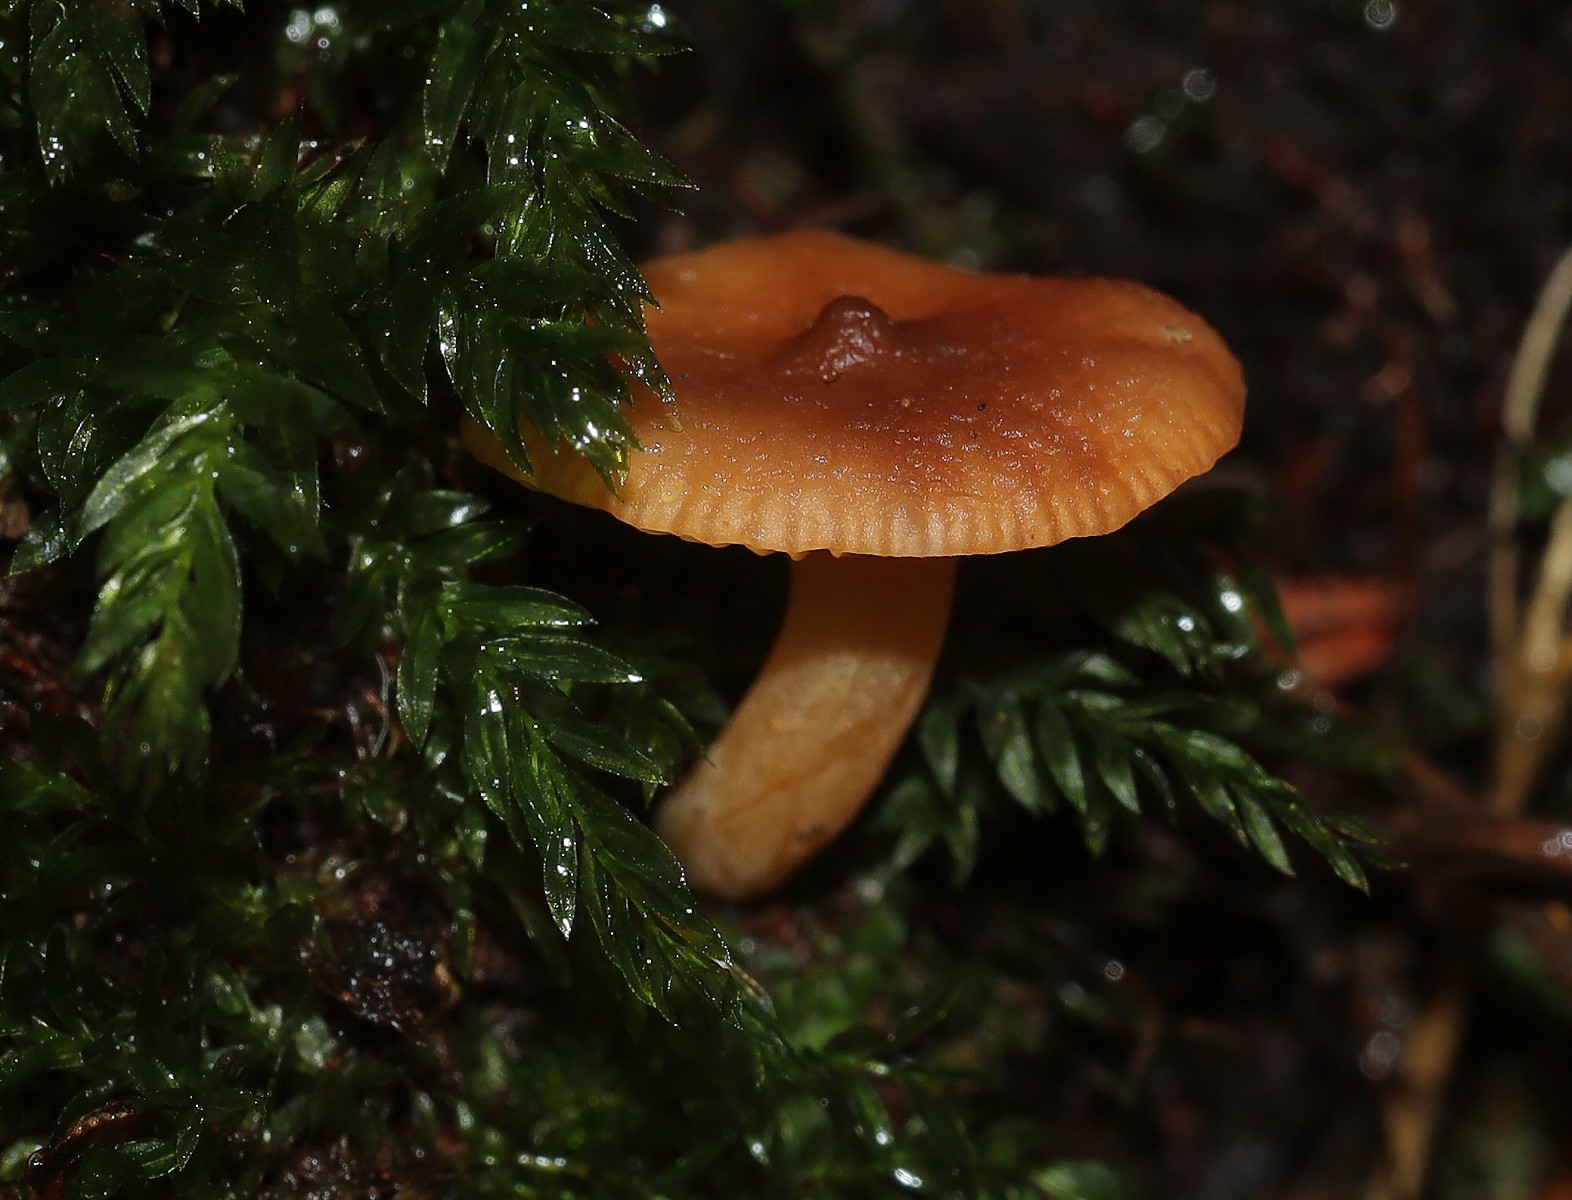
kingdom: Fungi
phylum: Basidiomycota
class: Agaricomycetes
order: Russulales
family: Russulaceae
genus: Lactarius
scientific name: Lactarius
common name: mælkehat
